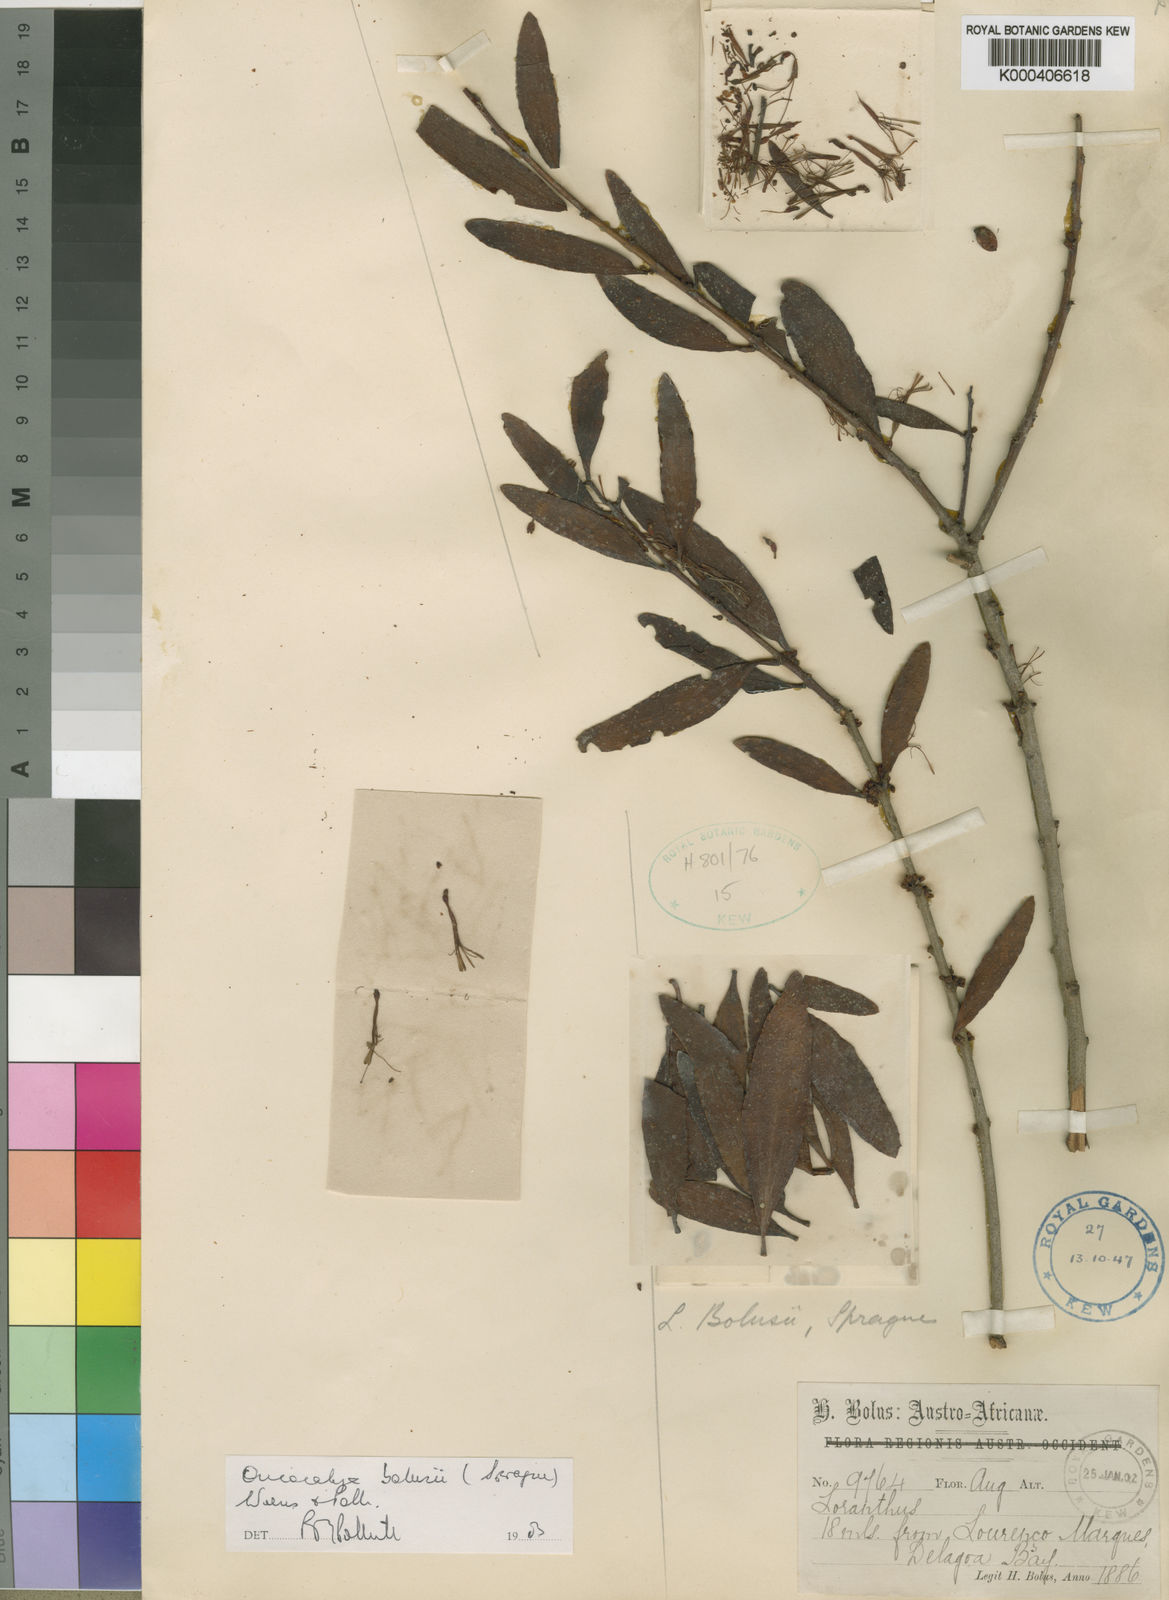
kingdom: Plantae
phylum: Tracheophyta
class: Magnoliopsida
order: Santalales
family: Loranthaceae
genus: Oncocalyx
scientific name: Oncocalyx bolusii
